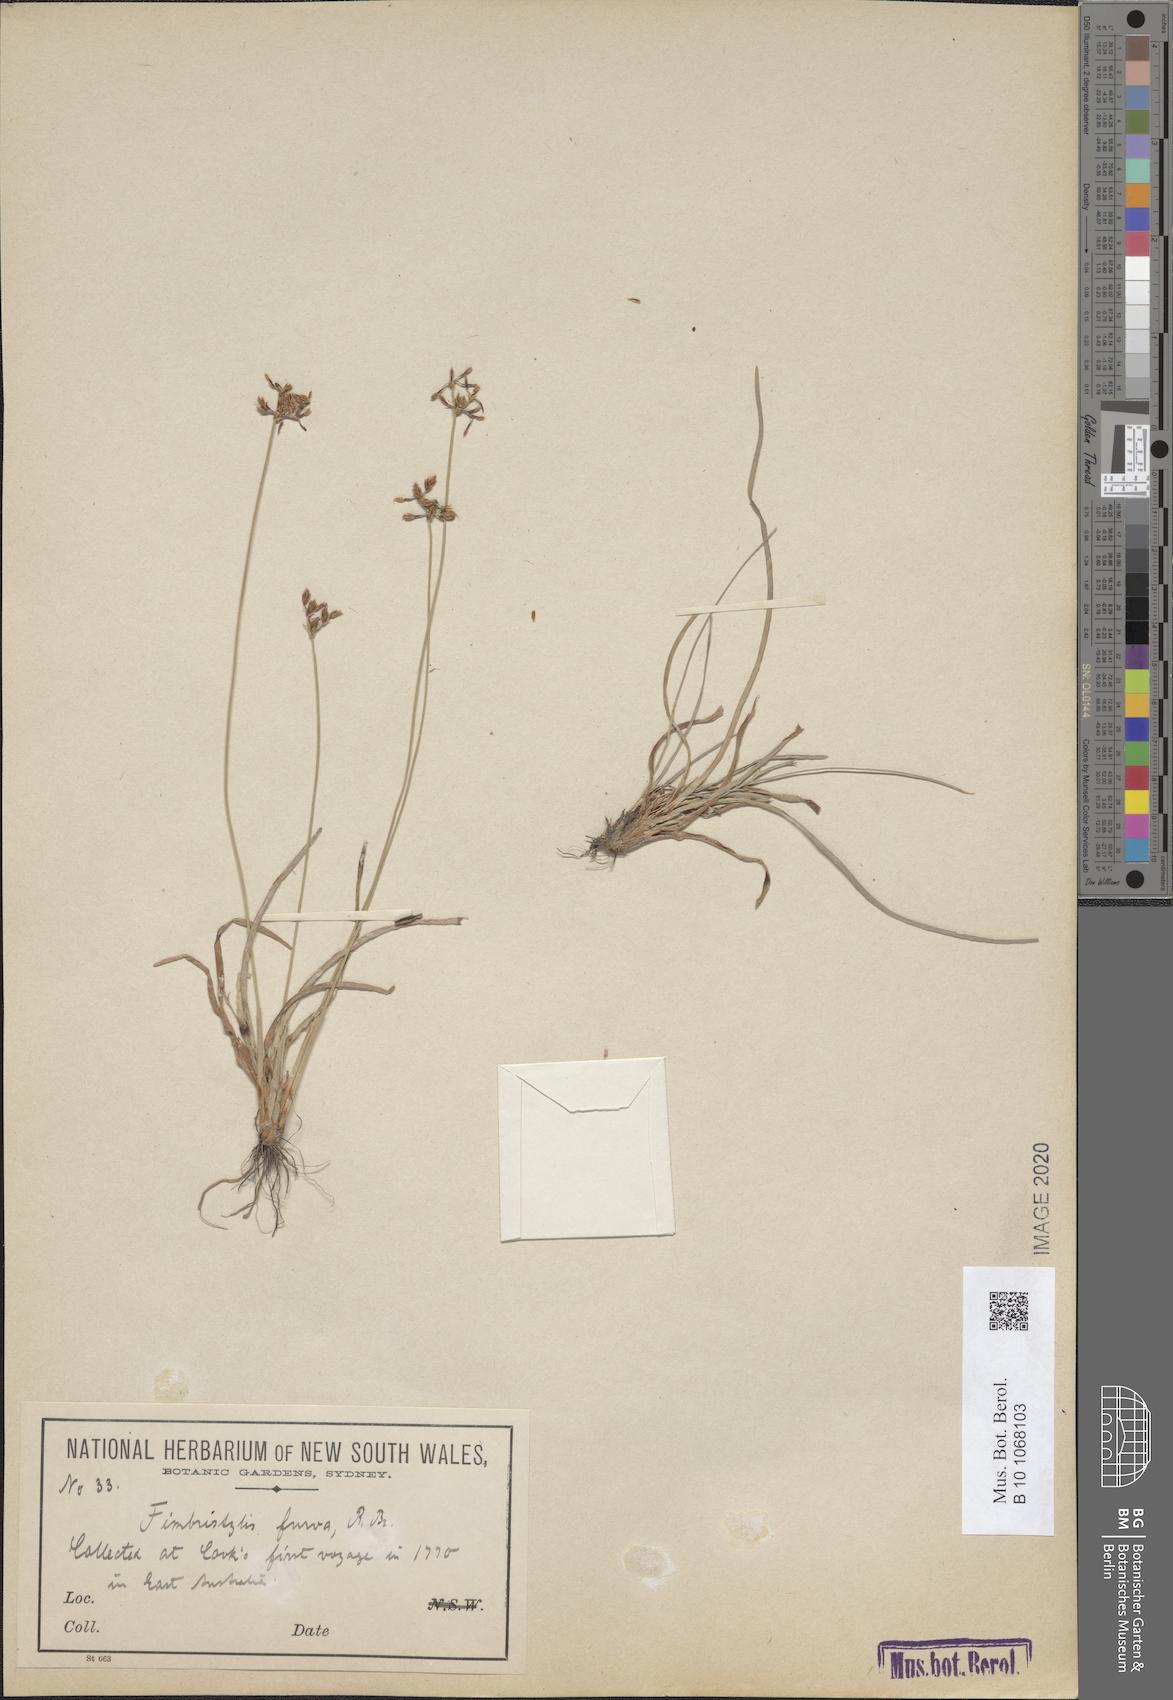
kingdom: Plantae
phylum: Tracheophyta
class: Liliopsida
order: Poales
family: Cyperaceae
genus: Fimbristylis
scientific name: Fimbristylis furva
